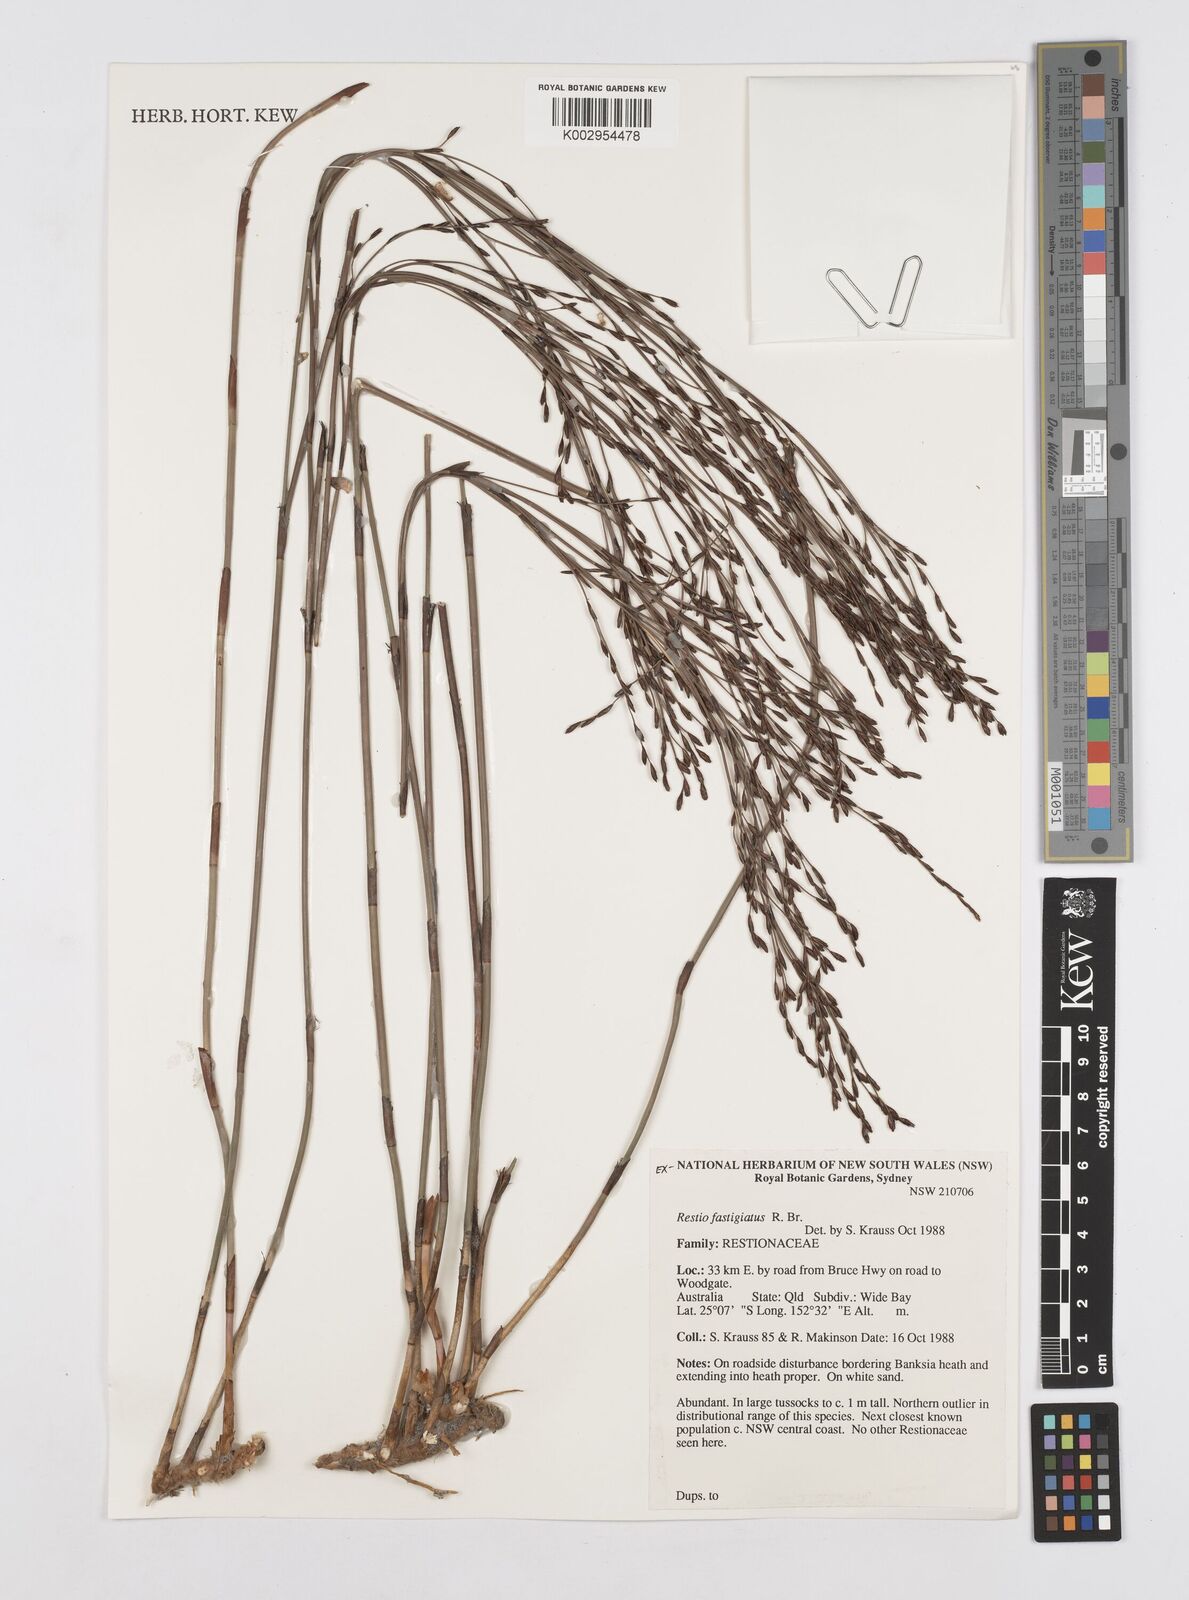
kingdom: Plantae
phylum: Tracheophyta
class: Liliopsida
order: Poales
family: Restionaceae
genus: Chordifex
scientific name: Chordifex fastigiatus
